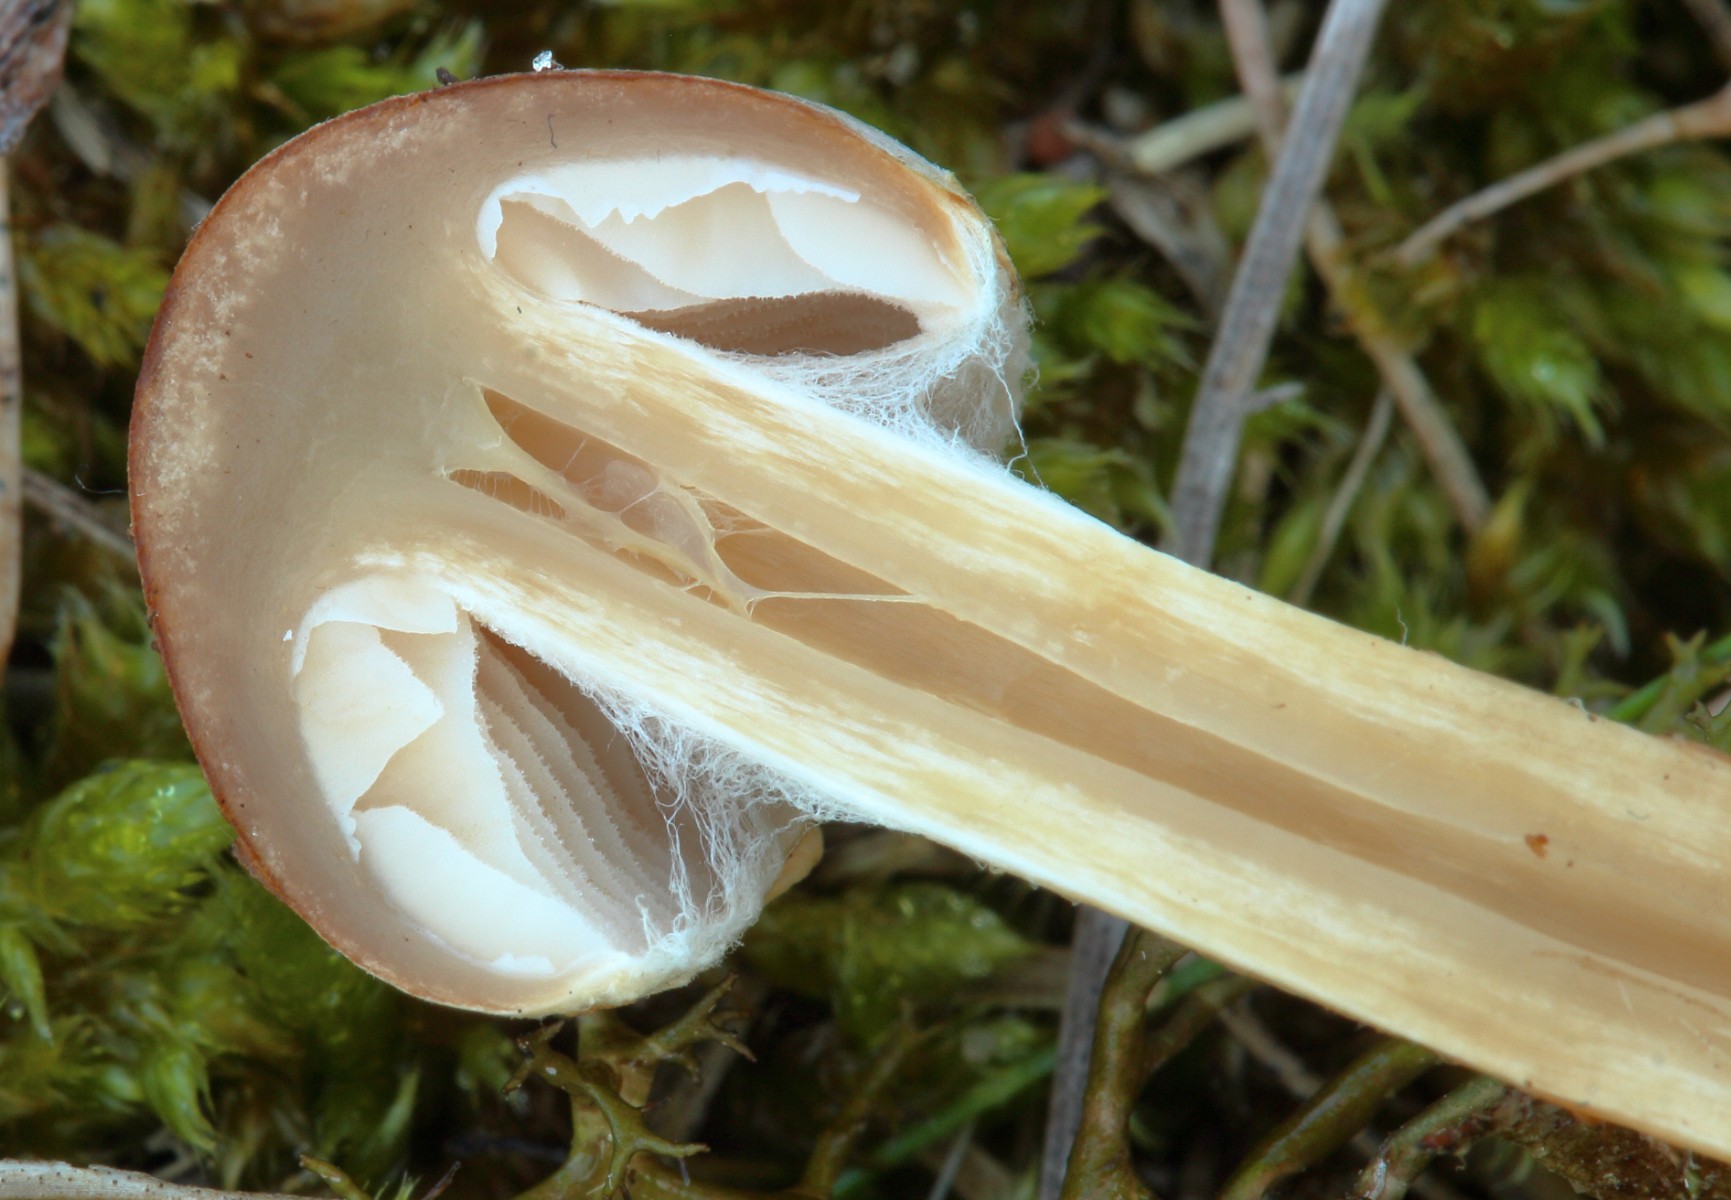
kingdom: Fungi
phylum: Basidiomycota
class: Agaricomycetes
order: Agaricales
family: Hymenogastraceae
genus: Hebeloma
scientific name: Hebeloma
